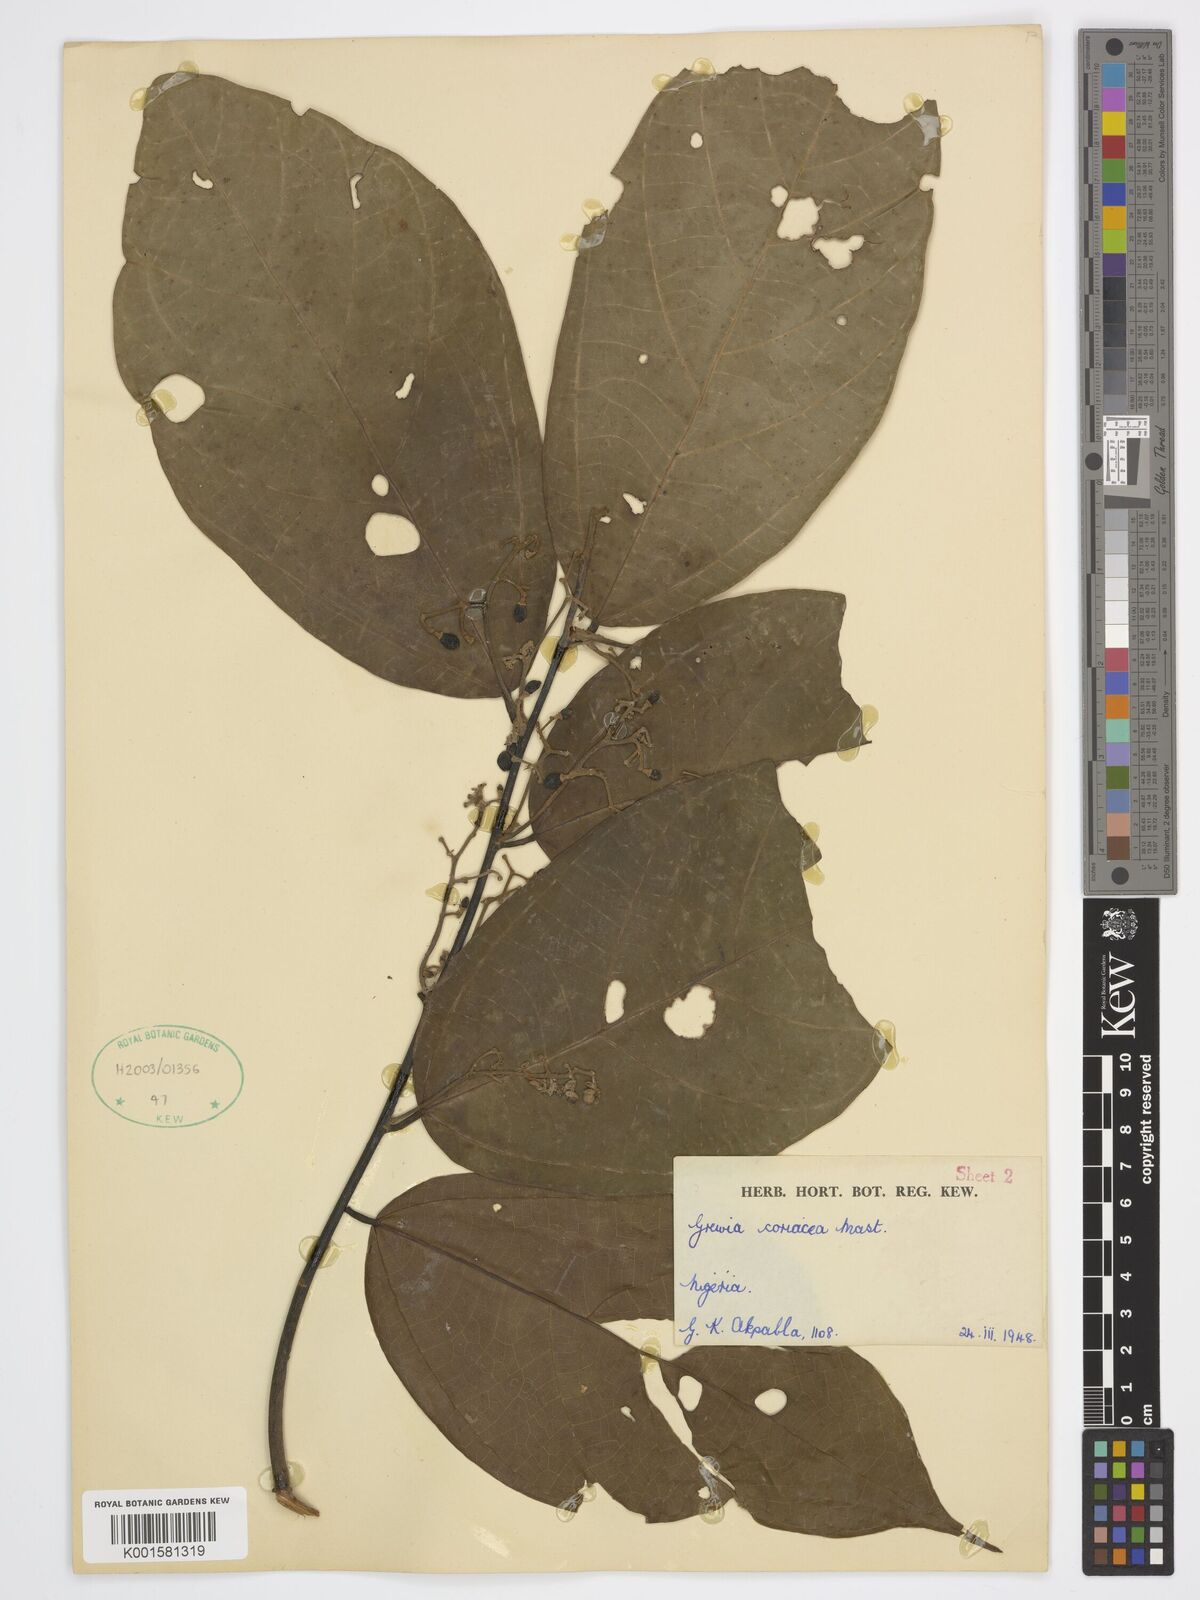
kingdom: Plantae
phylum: Tracheophyta
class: Magnoliopsida
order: Malvales
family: Malvaceae
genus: Microcos
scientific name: Microcos coriacea
